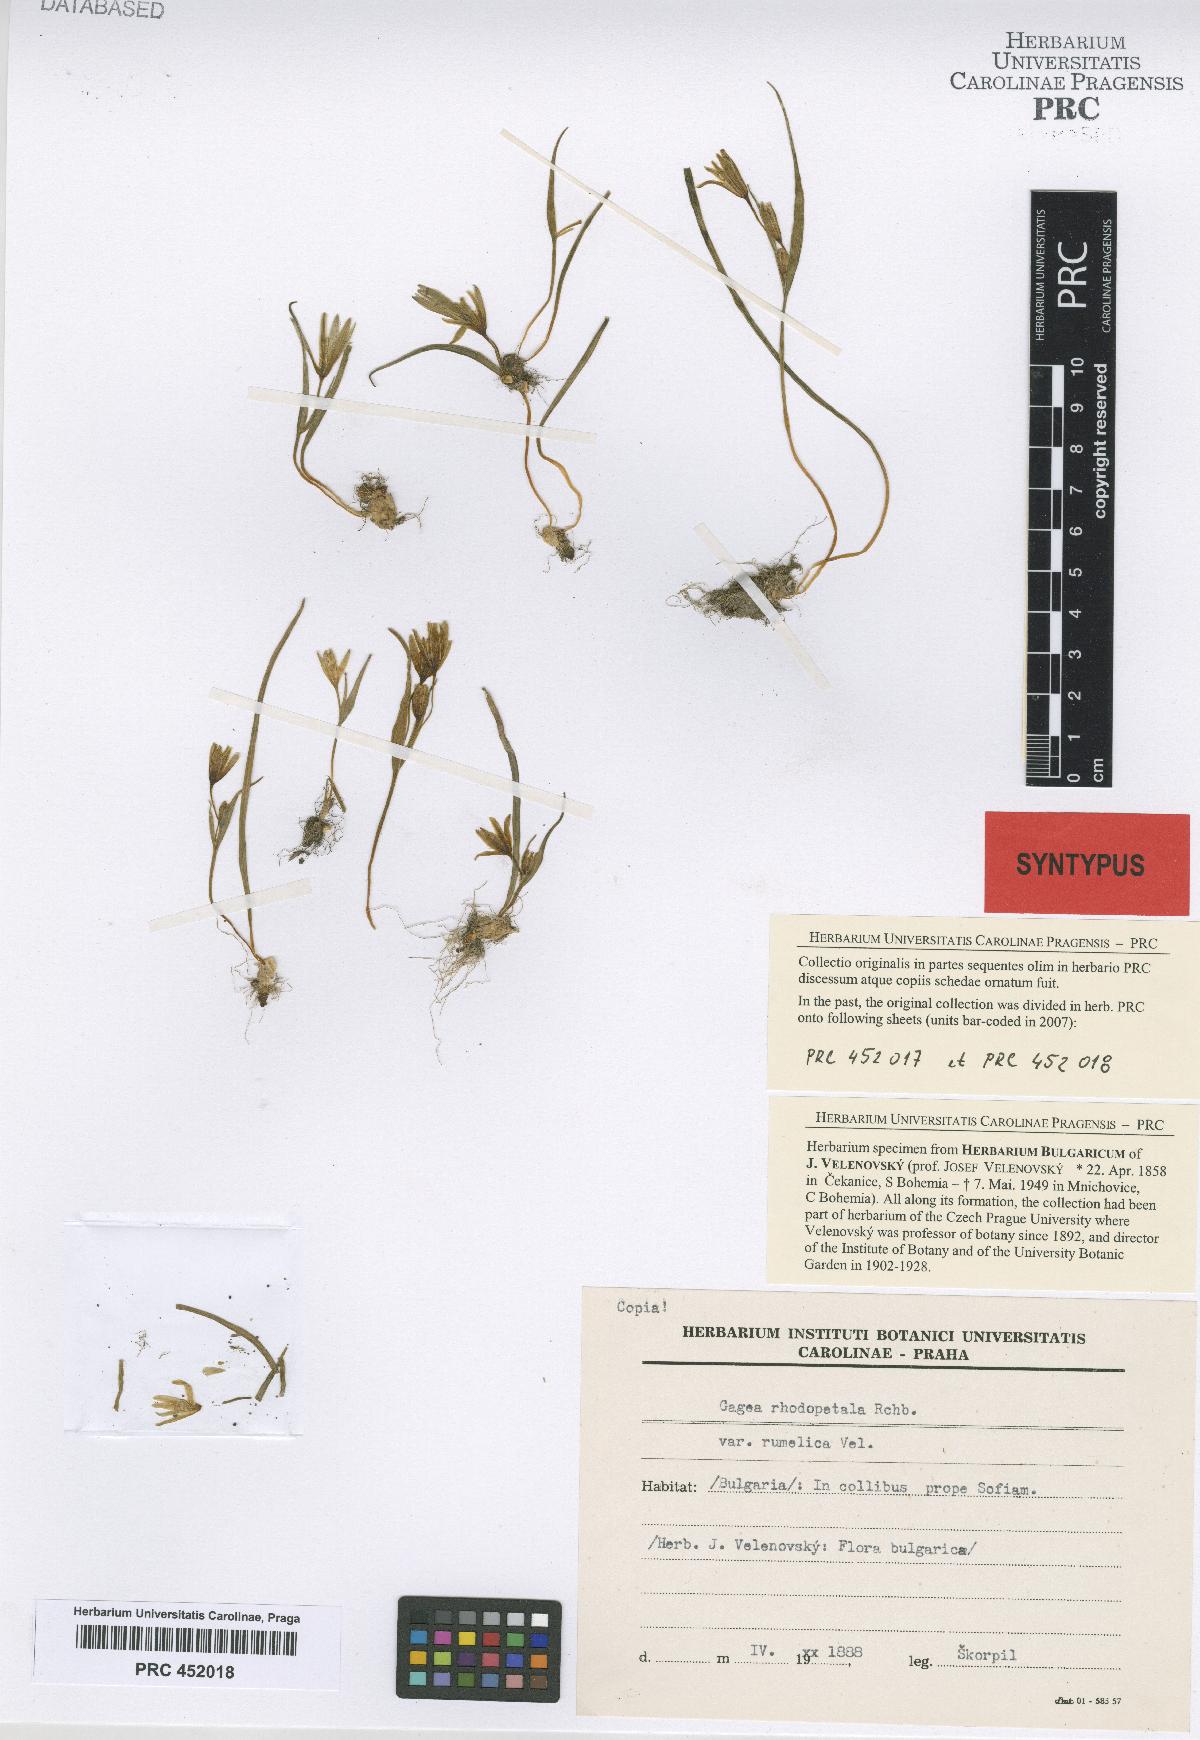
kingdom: Plantae
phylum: Tracheophyta
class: Liliopsida
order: Liliales
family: Liliaceae
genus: Gagea
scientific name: Gagea pratensis
